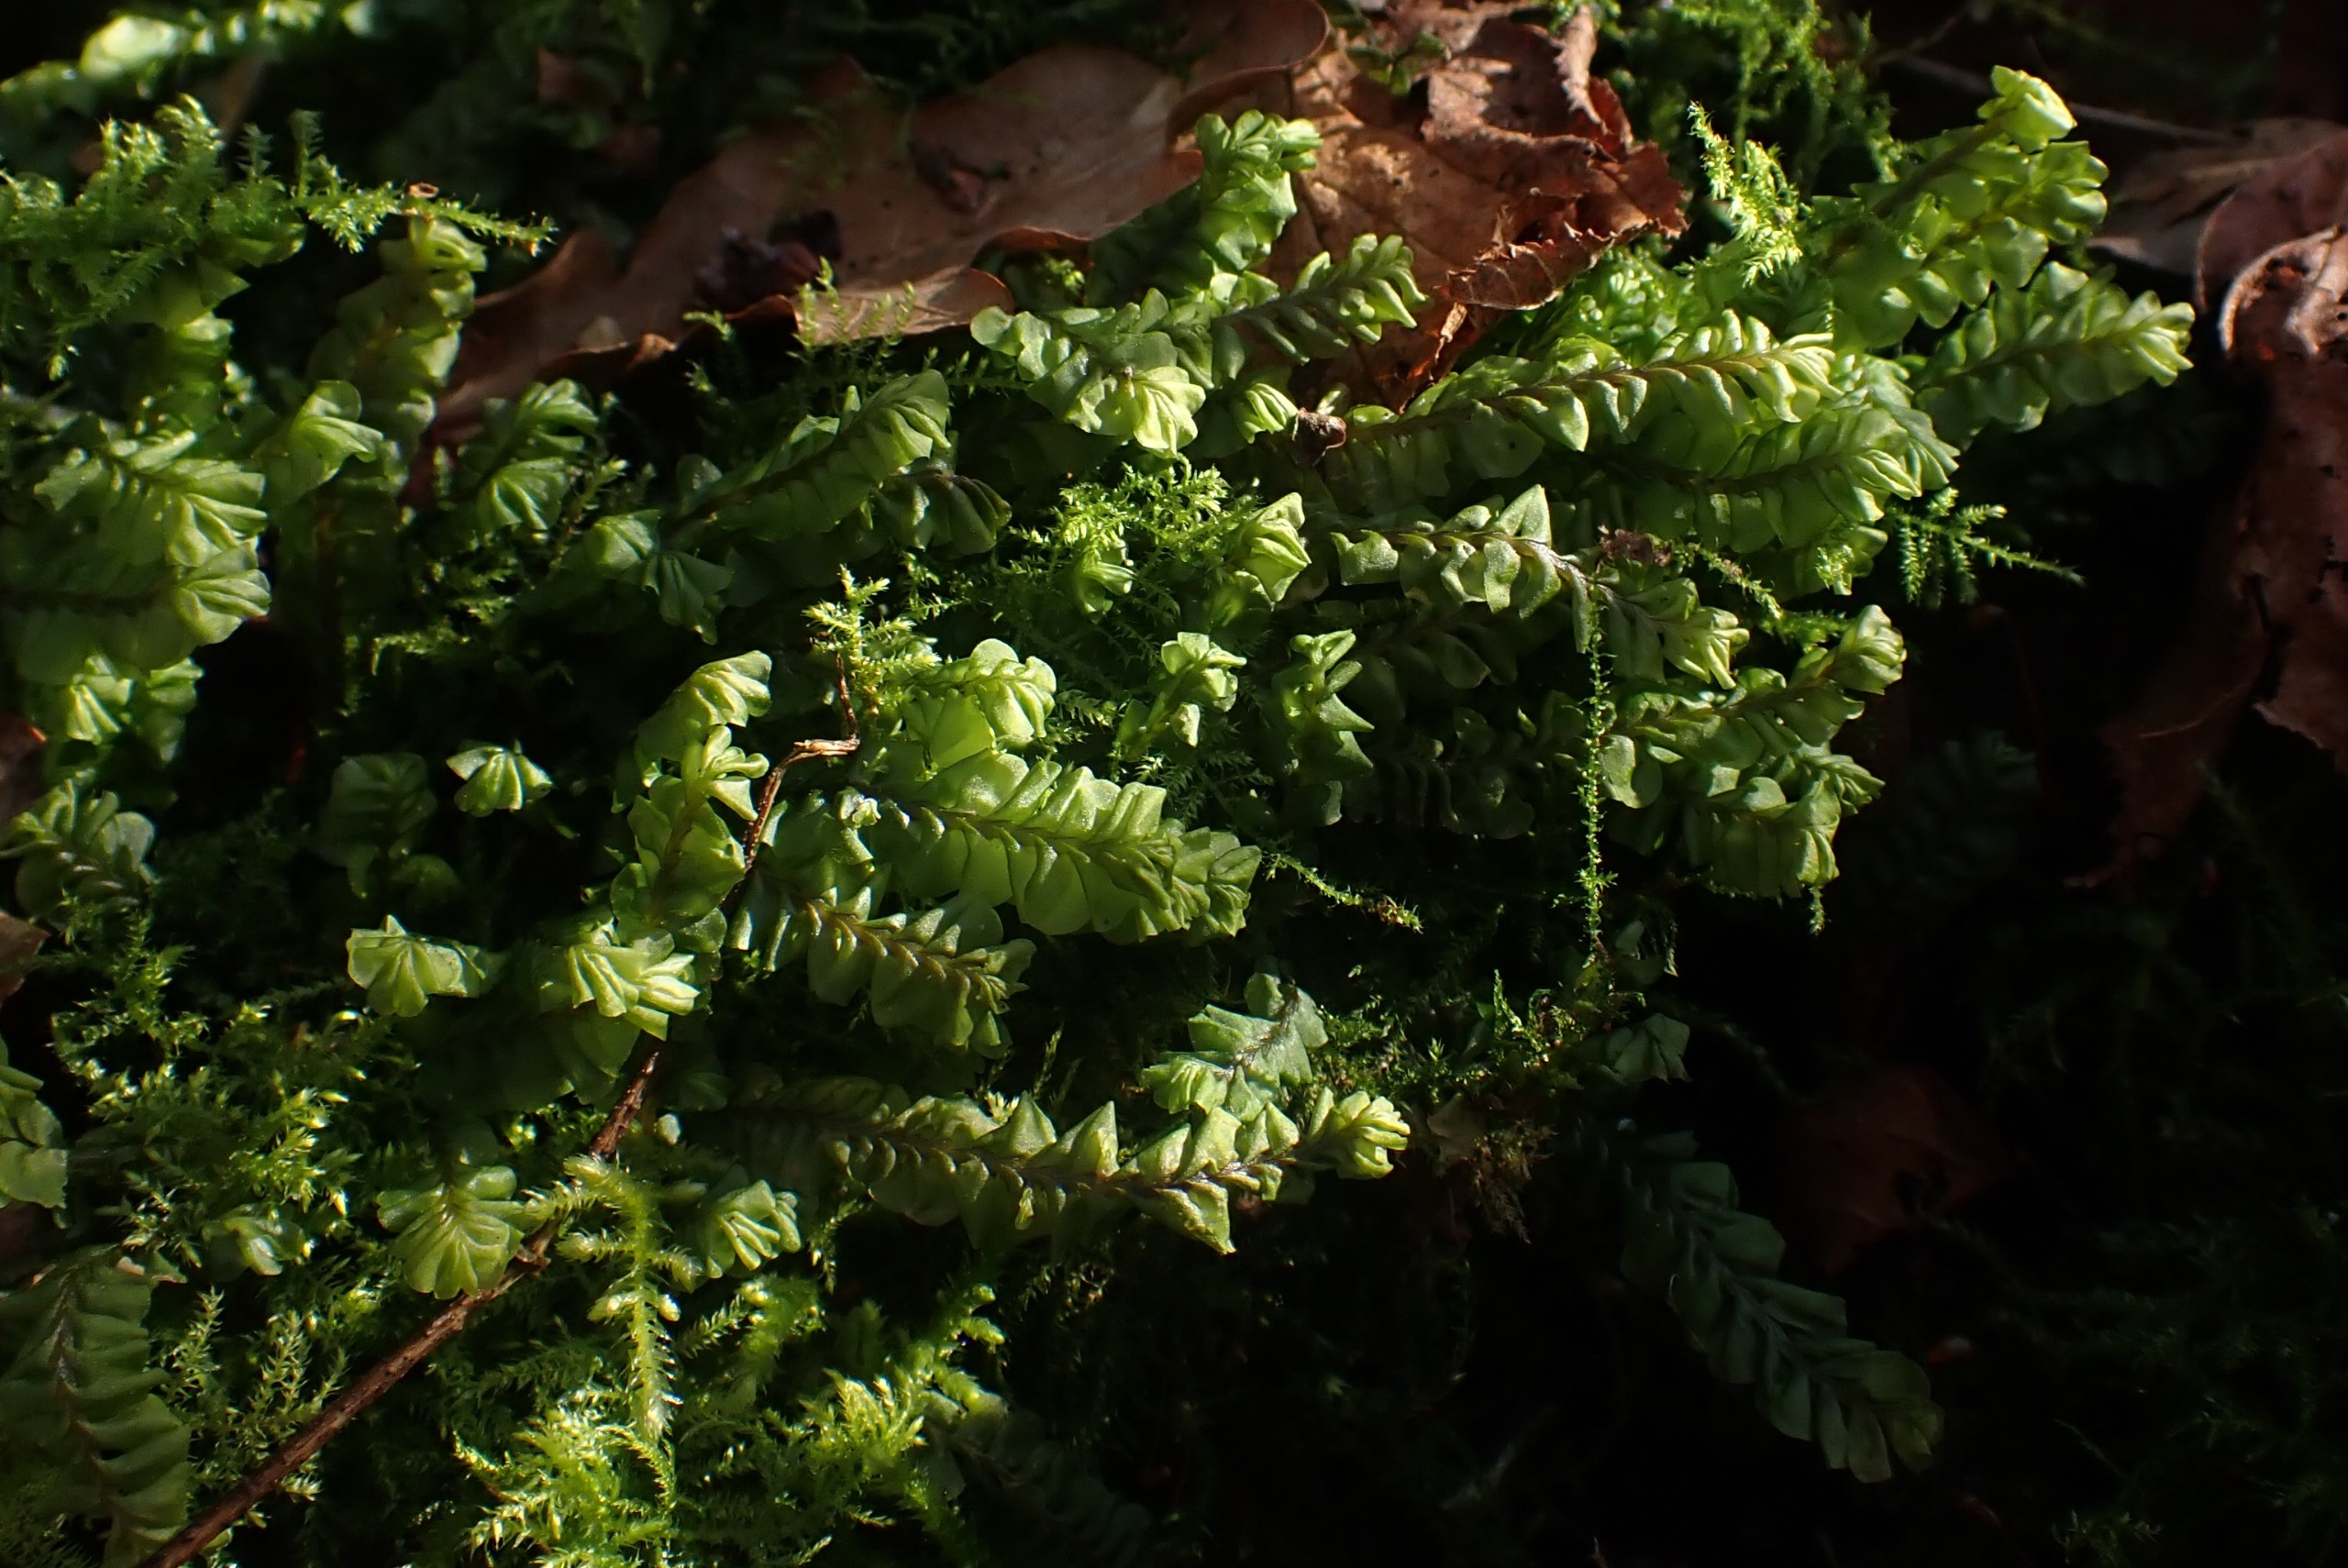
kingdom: Plantae
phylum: Marchantiophyta
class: Jungermanniopsida
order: Jungermanniales
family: Plagiochilaceae
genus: Plagiochila
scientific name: Plagiochila asplenioides
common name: Radeløv-hindeblad
